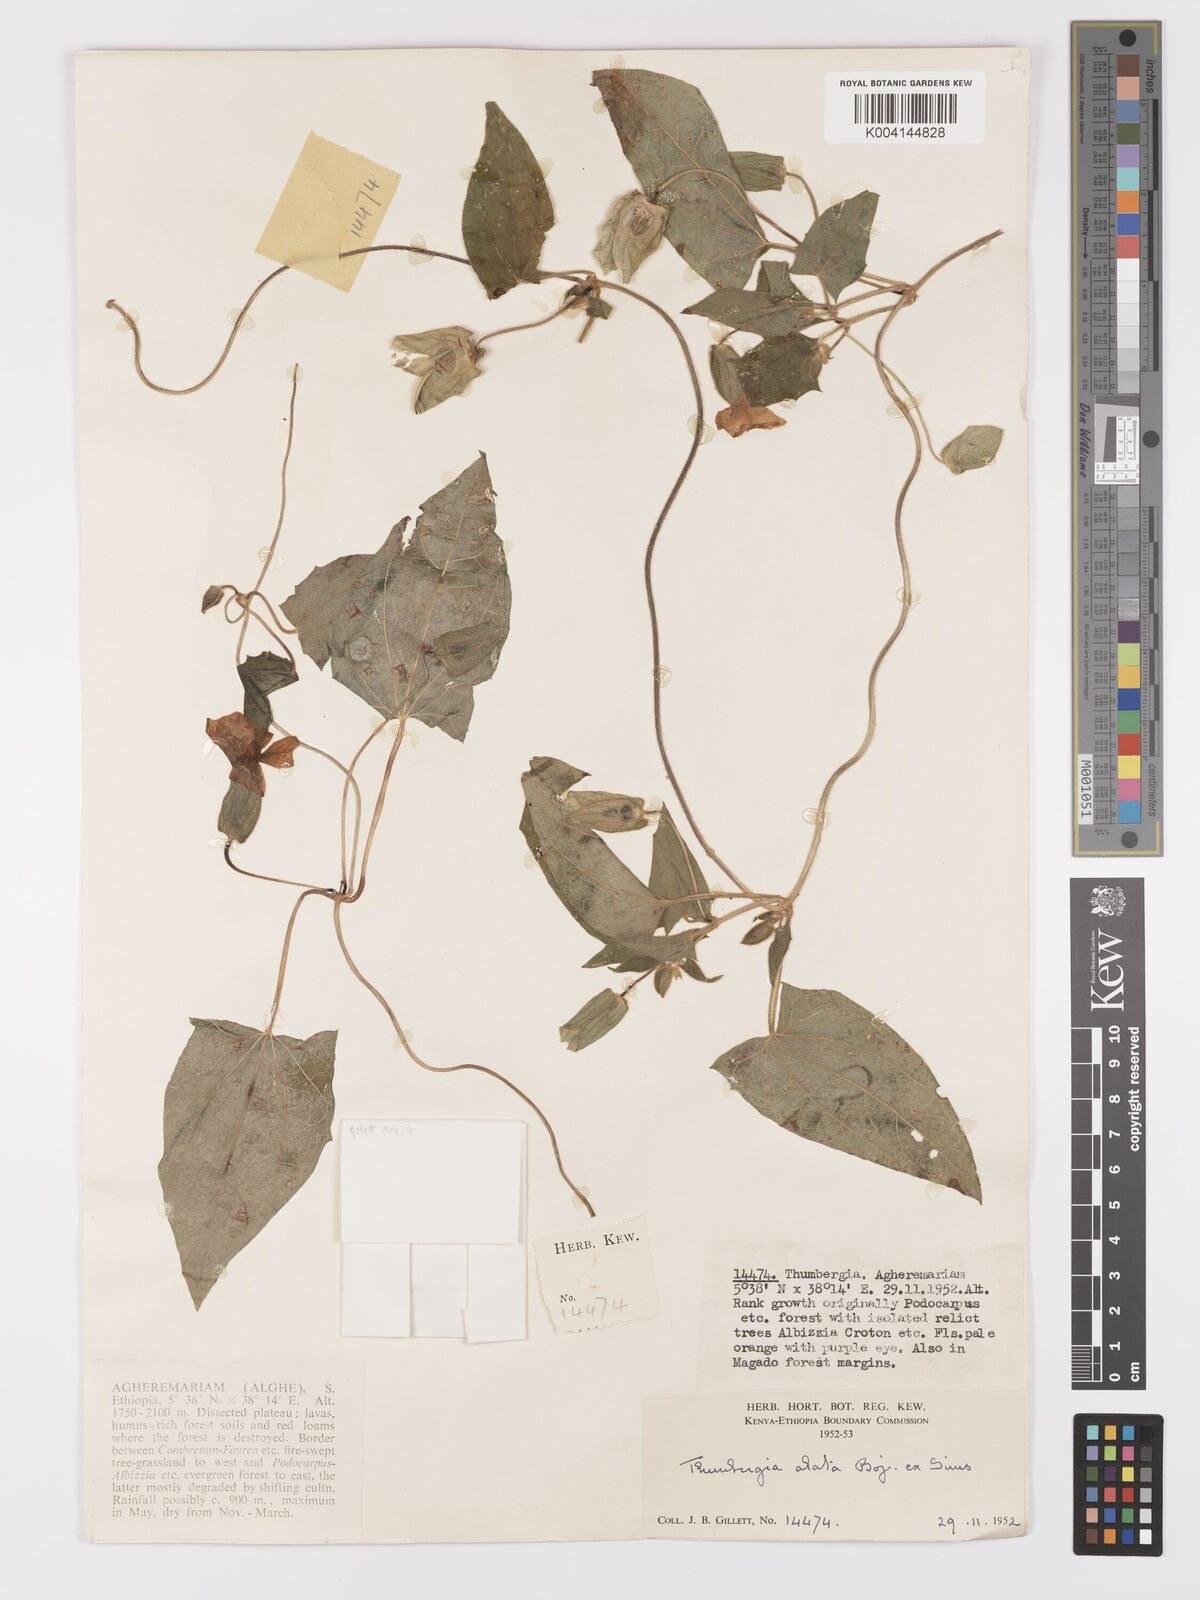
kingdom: Plantae
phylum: Tracheophyta
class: Magnoliopsida
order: Lamiales
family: Acanthaceae
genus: Thunbergia
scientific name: Thunbergia alata
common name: Blackeyed susan vine
